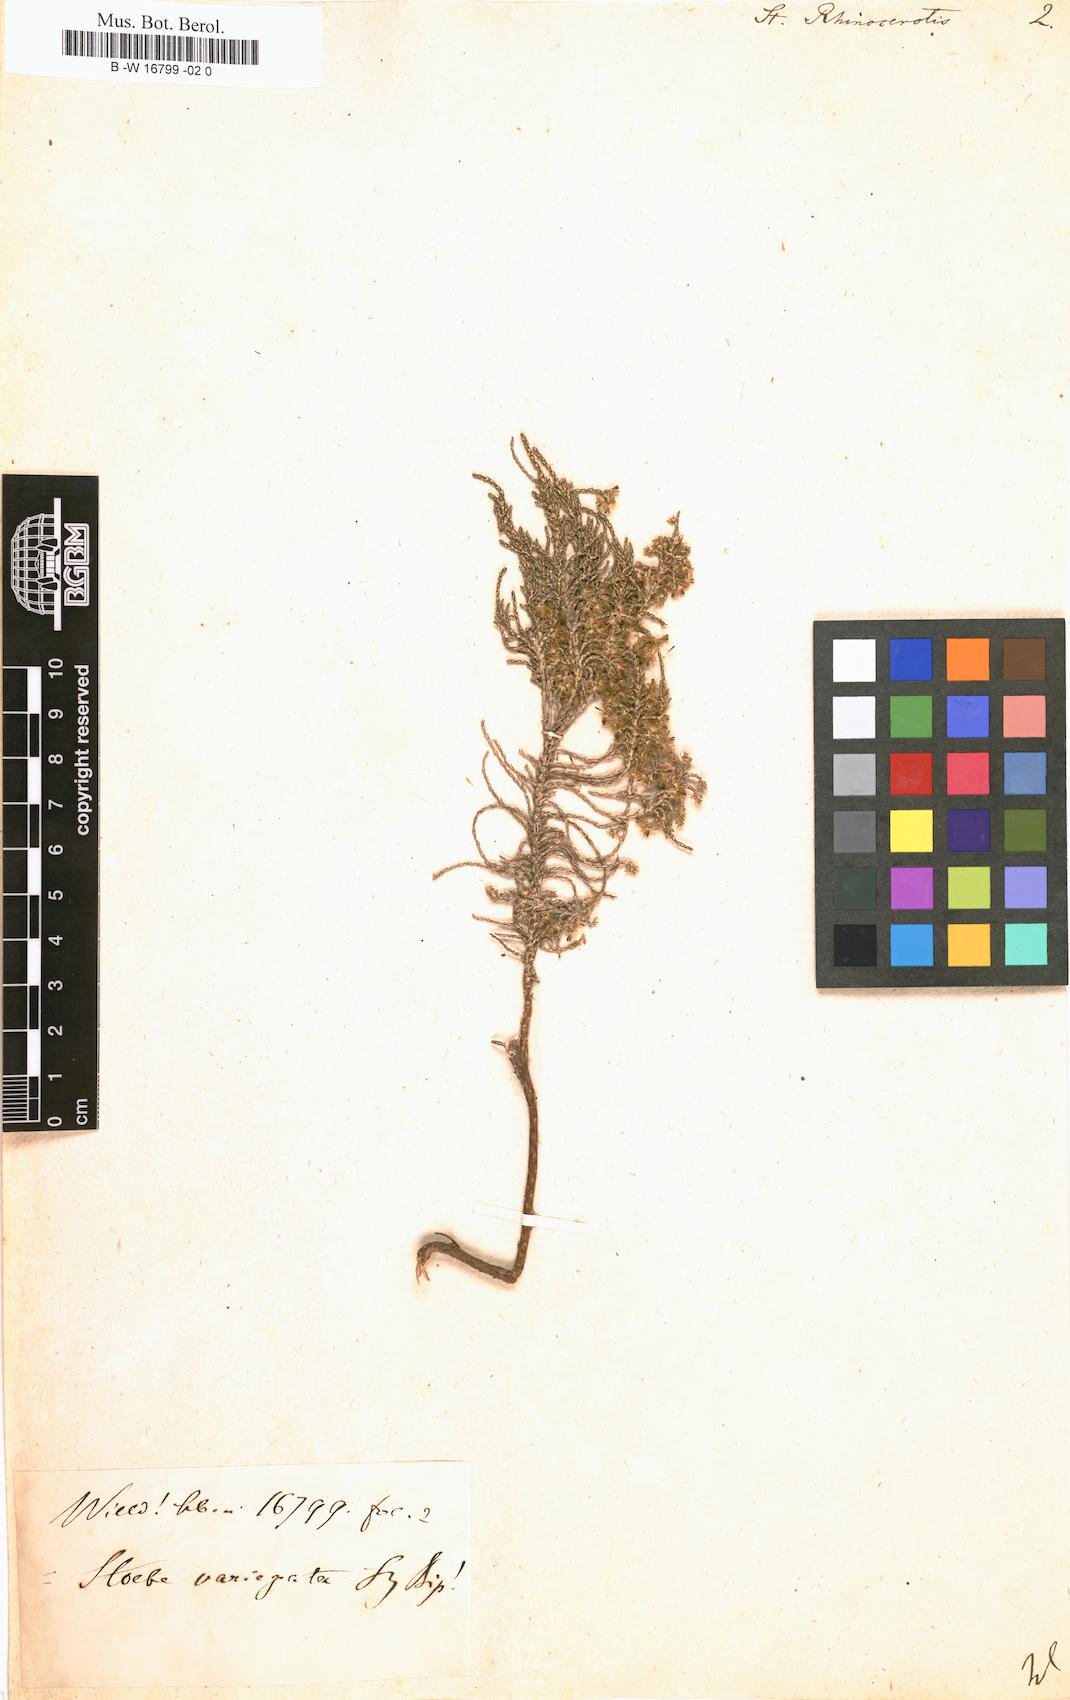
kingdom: Plantae
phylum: Tracheophyta
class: Magnoliopsida
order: Asterales
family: Asteraceae
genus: Dicerothamnus
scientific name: Dicerothamnus rhinocerotis
